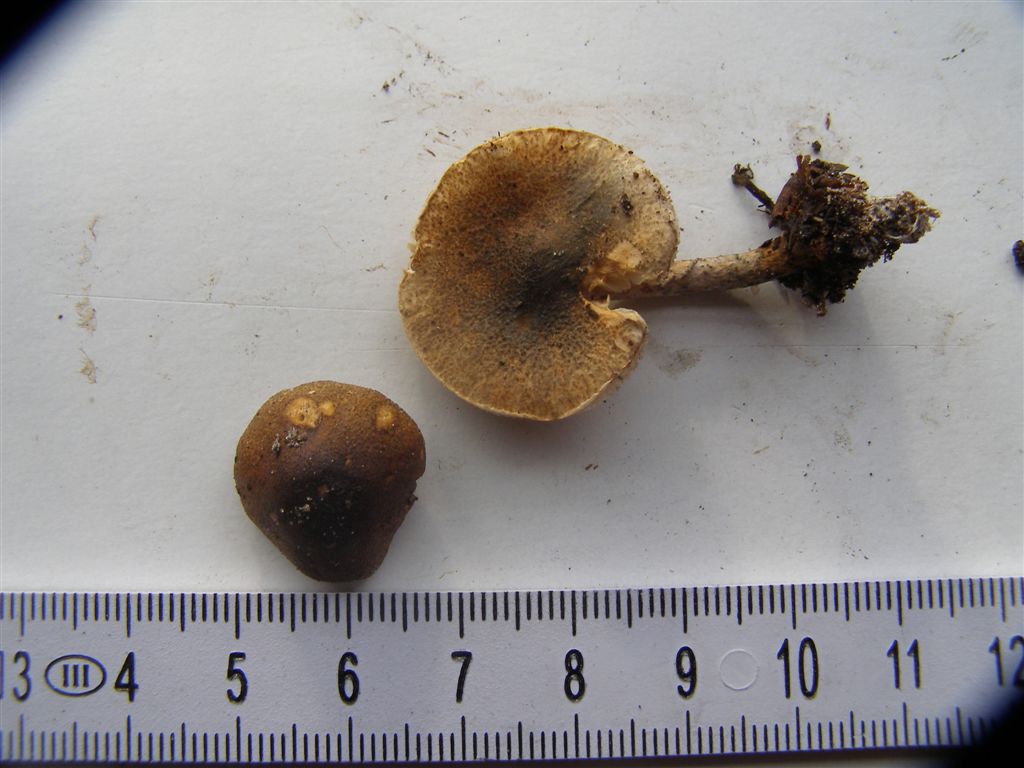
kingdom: Fungi
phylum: Basidiomycota
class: Agaricomycetes
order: Agaricales
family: Agaricaceae
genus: Lepiota
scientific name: Lepiota grangei
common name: grønskællet parasolhat
